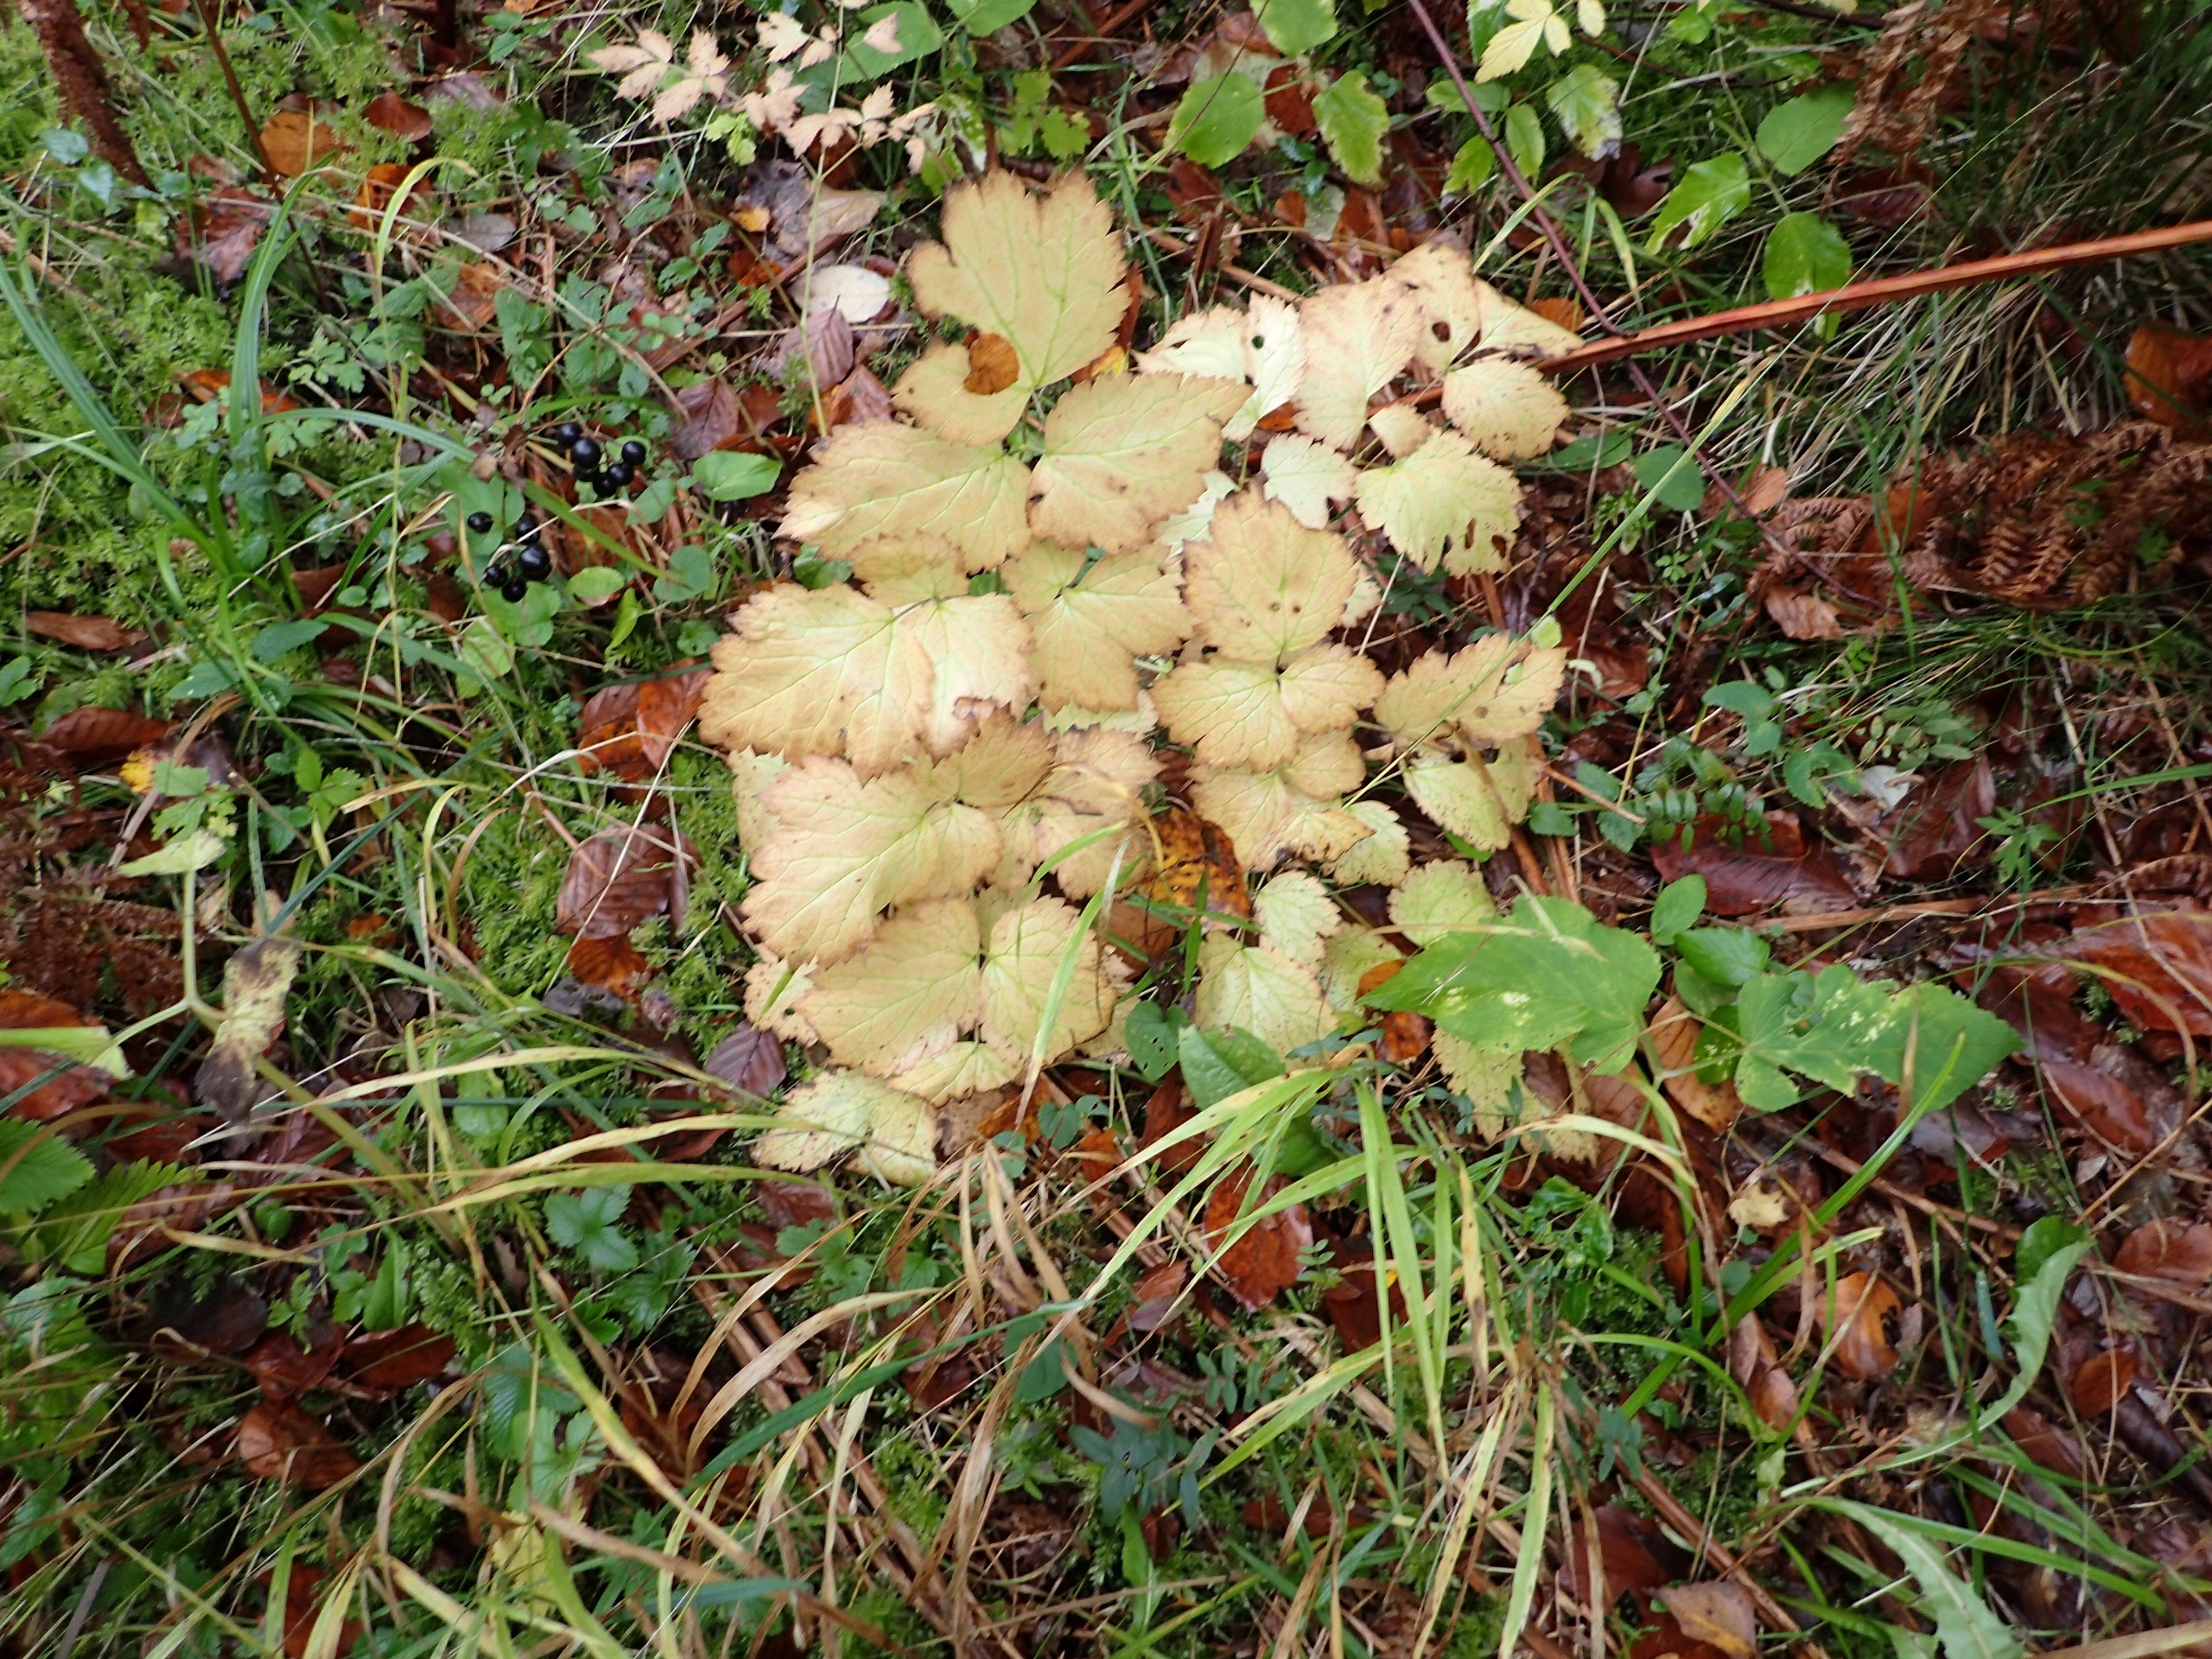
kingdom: Plantae
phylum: Tracheophyta
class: Magnoliopsida
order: Ranunculales
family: Ranunculaceae
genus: Actaea
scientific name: Actaea spicata
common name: Druemunke
